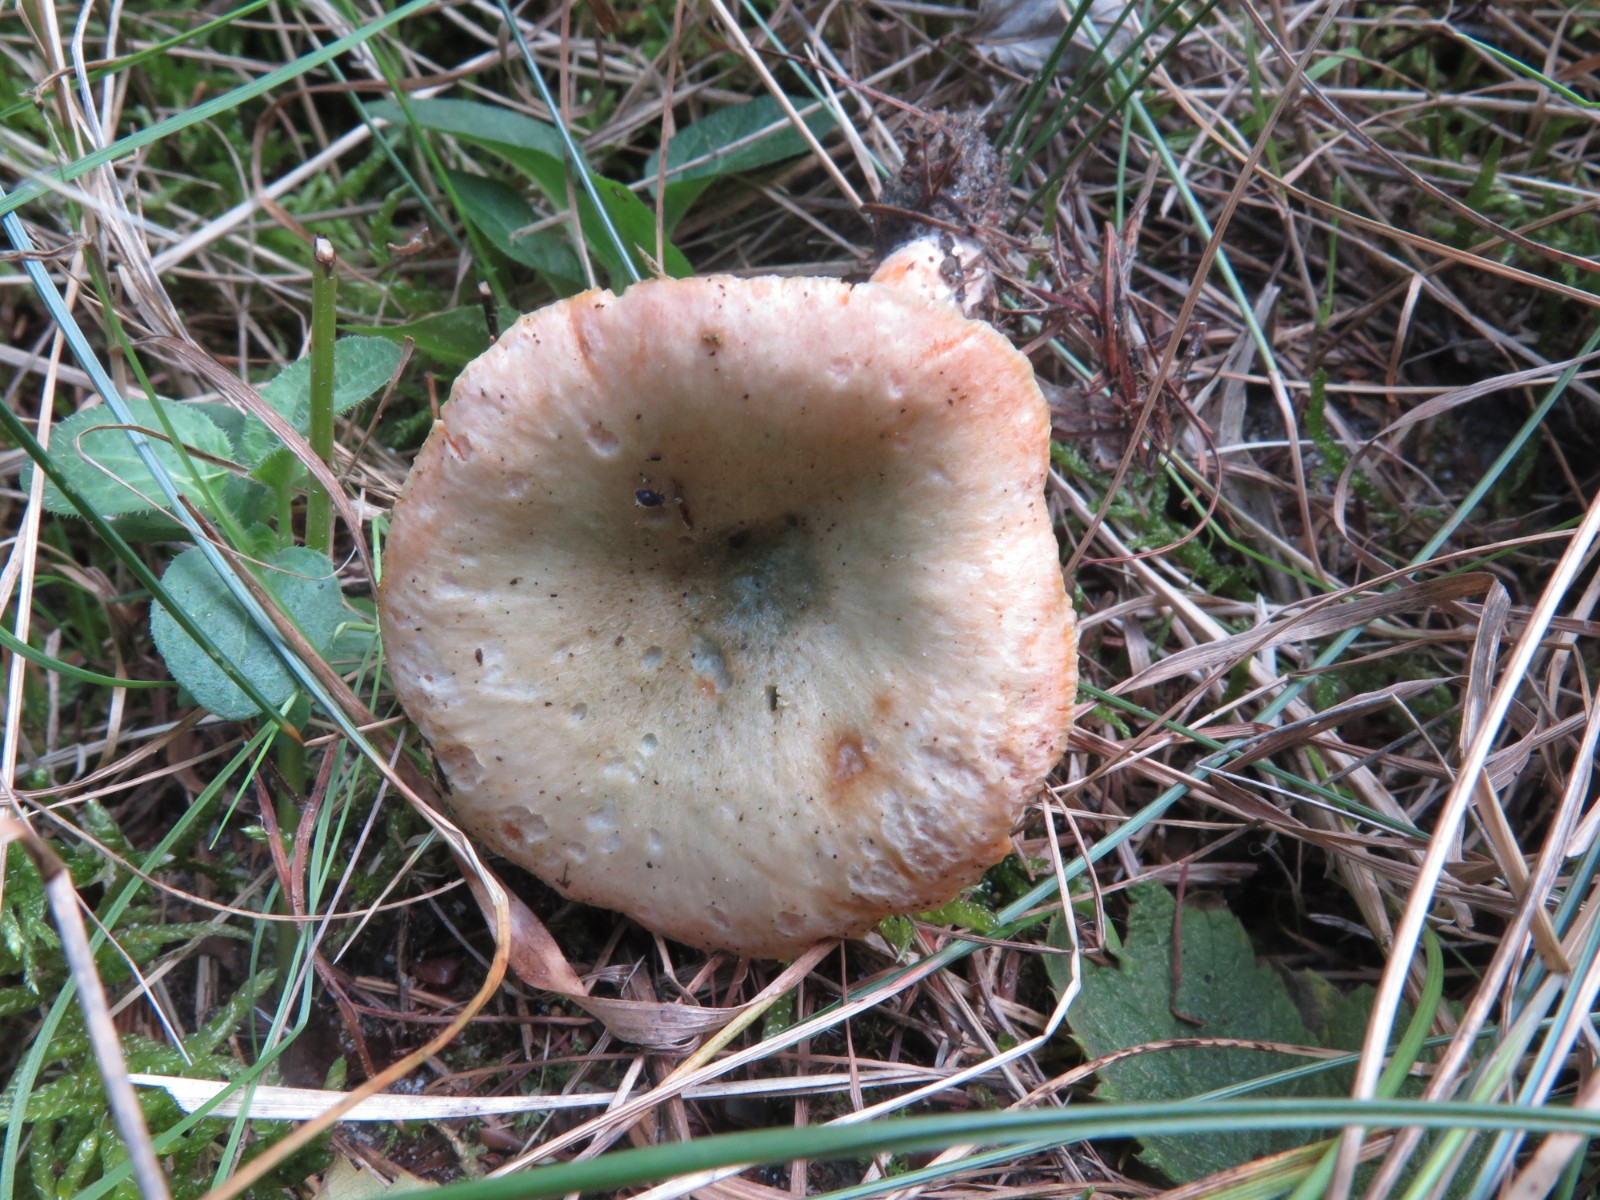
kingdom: Fungi
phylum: Basidiomycota
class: Agaricomycetes
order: Russulales
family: Russulaceae
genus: Lactarius
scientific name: Lactarius
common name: mælkehat
